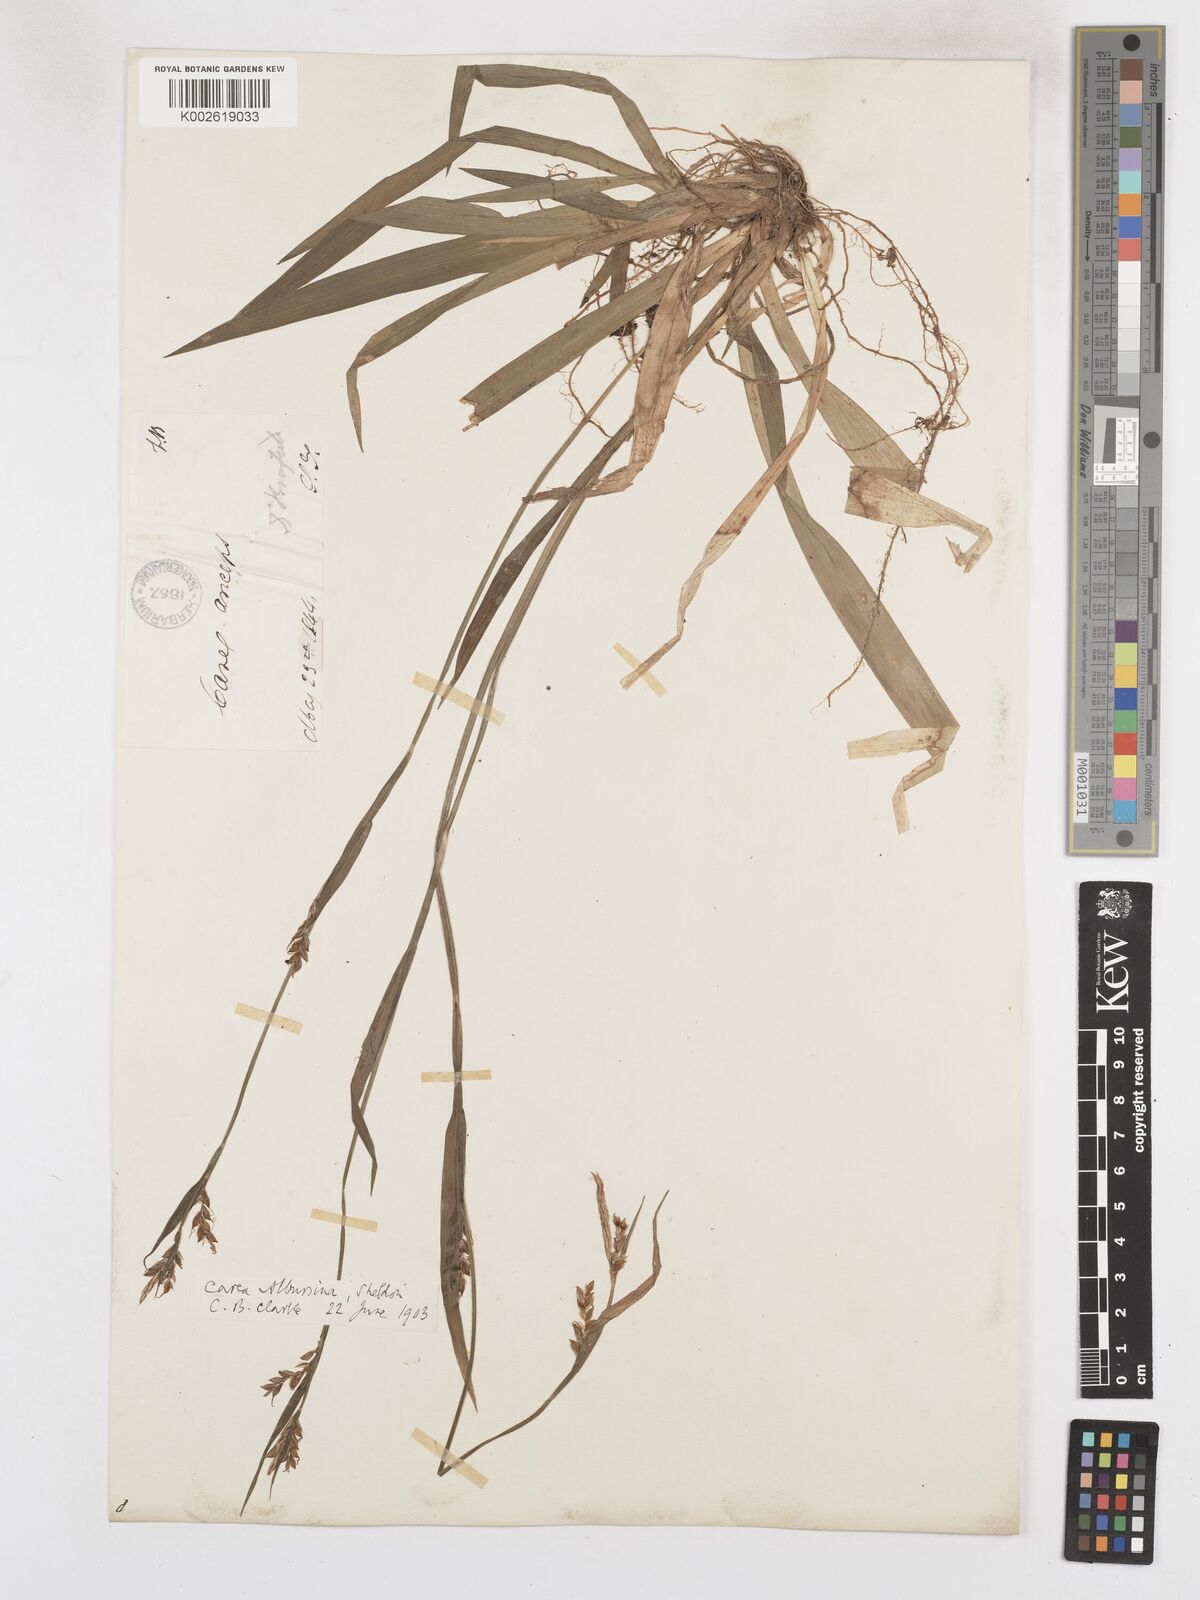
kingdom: Plantae
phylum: Tracheophyta
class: Liliopsida
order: Poales
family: Cyperaceae
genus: Carex
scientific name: Carex albursina
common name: Blunt-scale wood sedge
